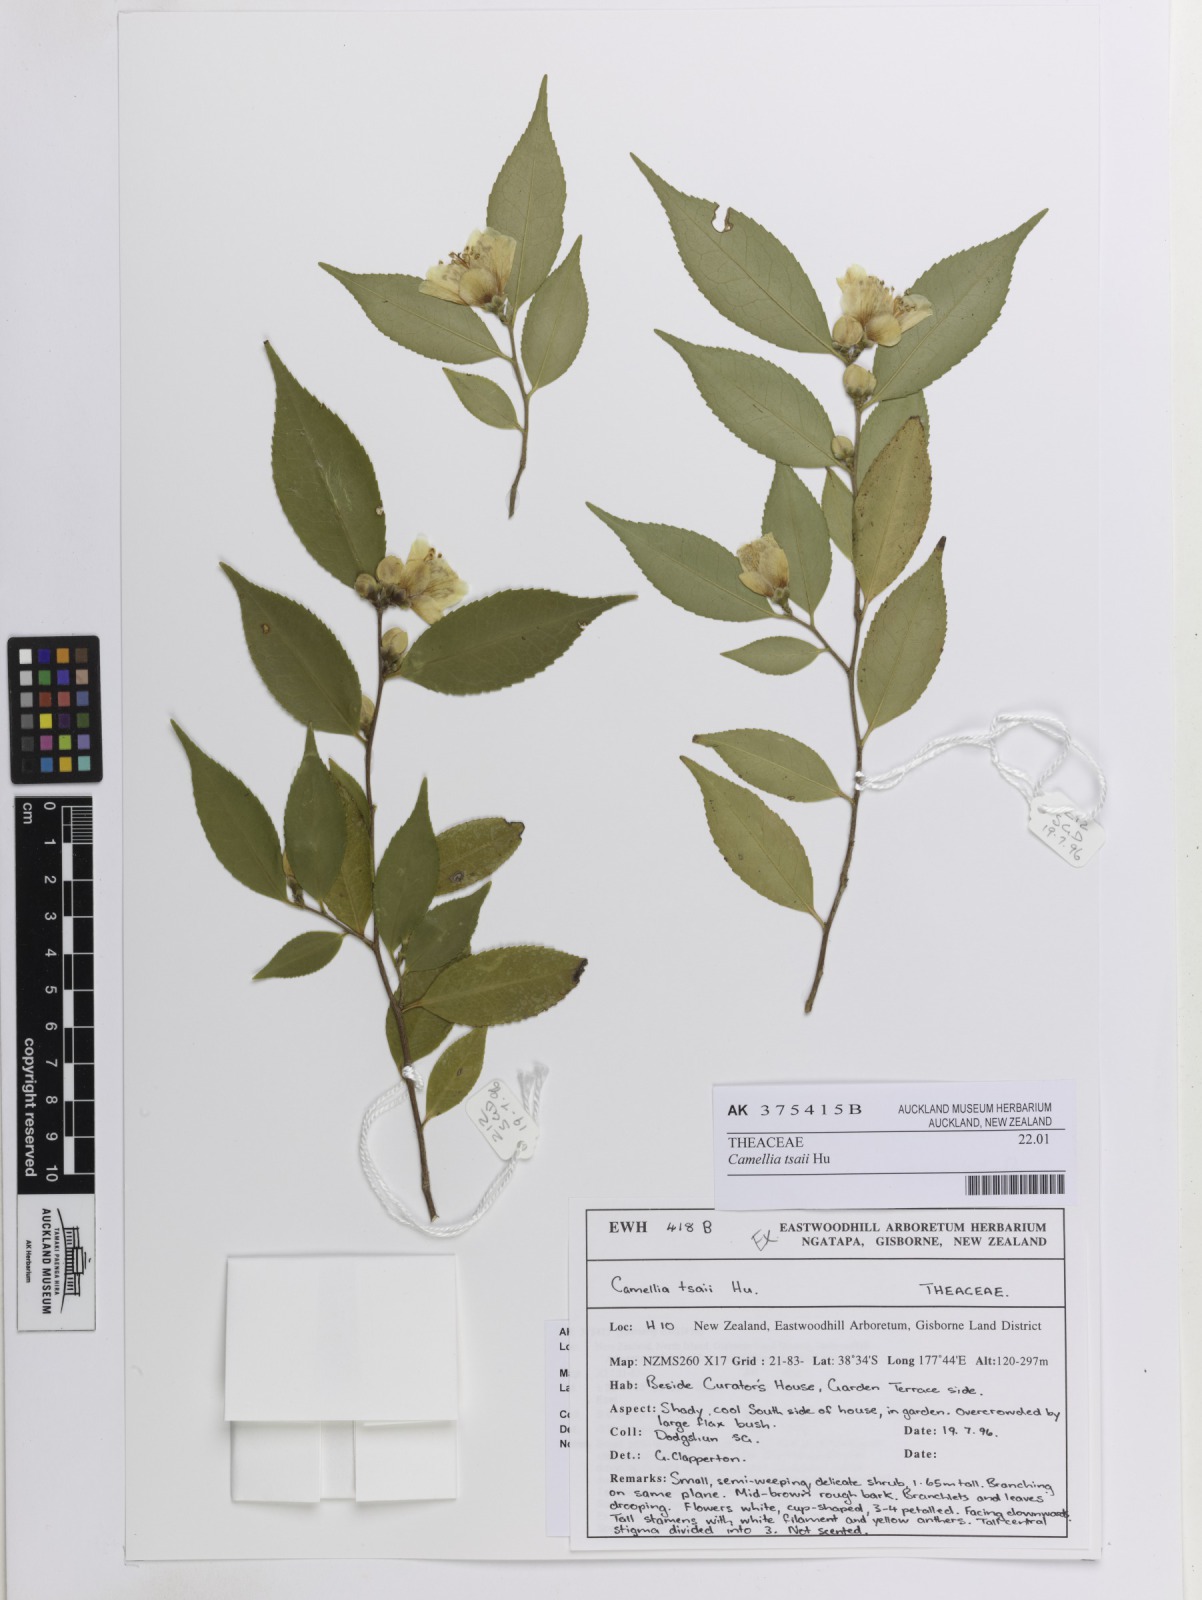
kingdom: Plantae
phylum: Tracheophyta
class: Magnoliopsida
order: Ericales
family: Theaceae
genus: Camellia
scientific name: Camellia tsaii
